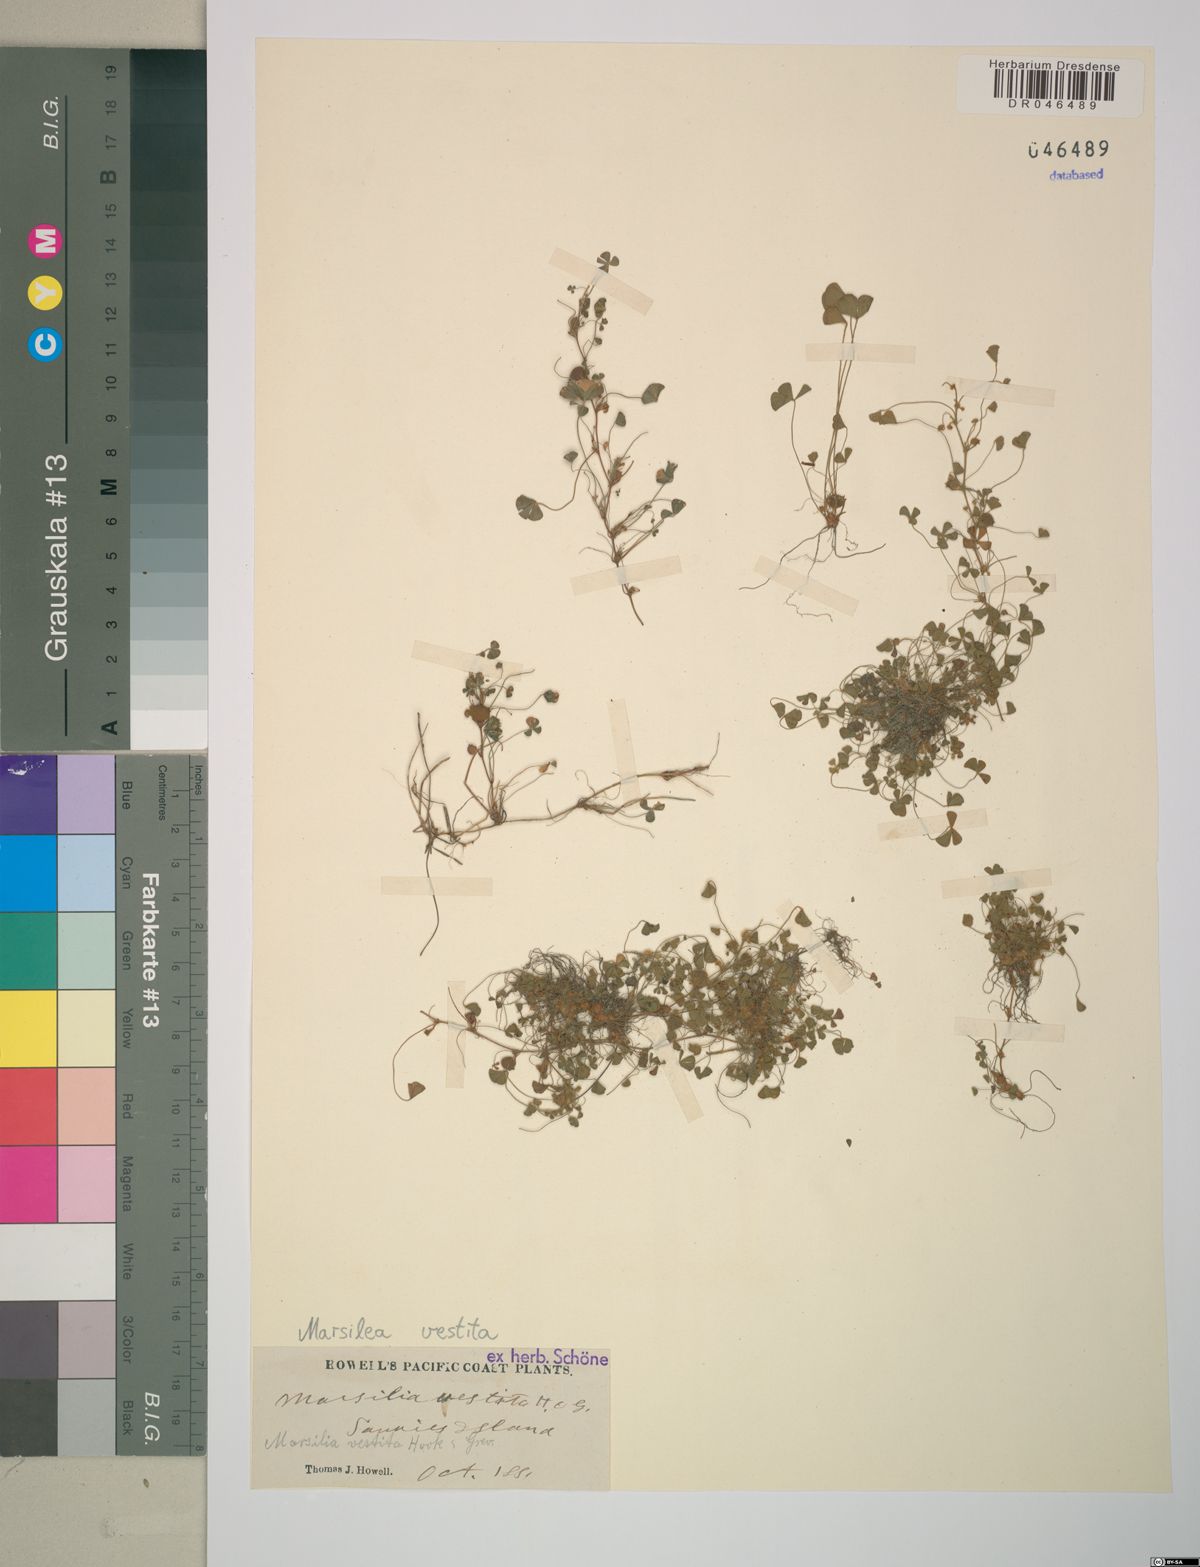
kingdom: Plantae
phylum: Tracheophyta
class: Polypodiopsida
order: Salviniales
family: Marsileaceae
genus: Marsilea
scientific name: Marsilea vestita
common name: Hooked-pepperwort
